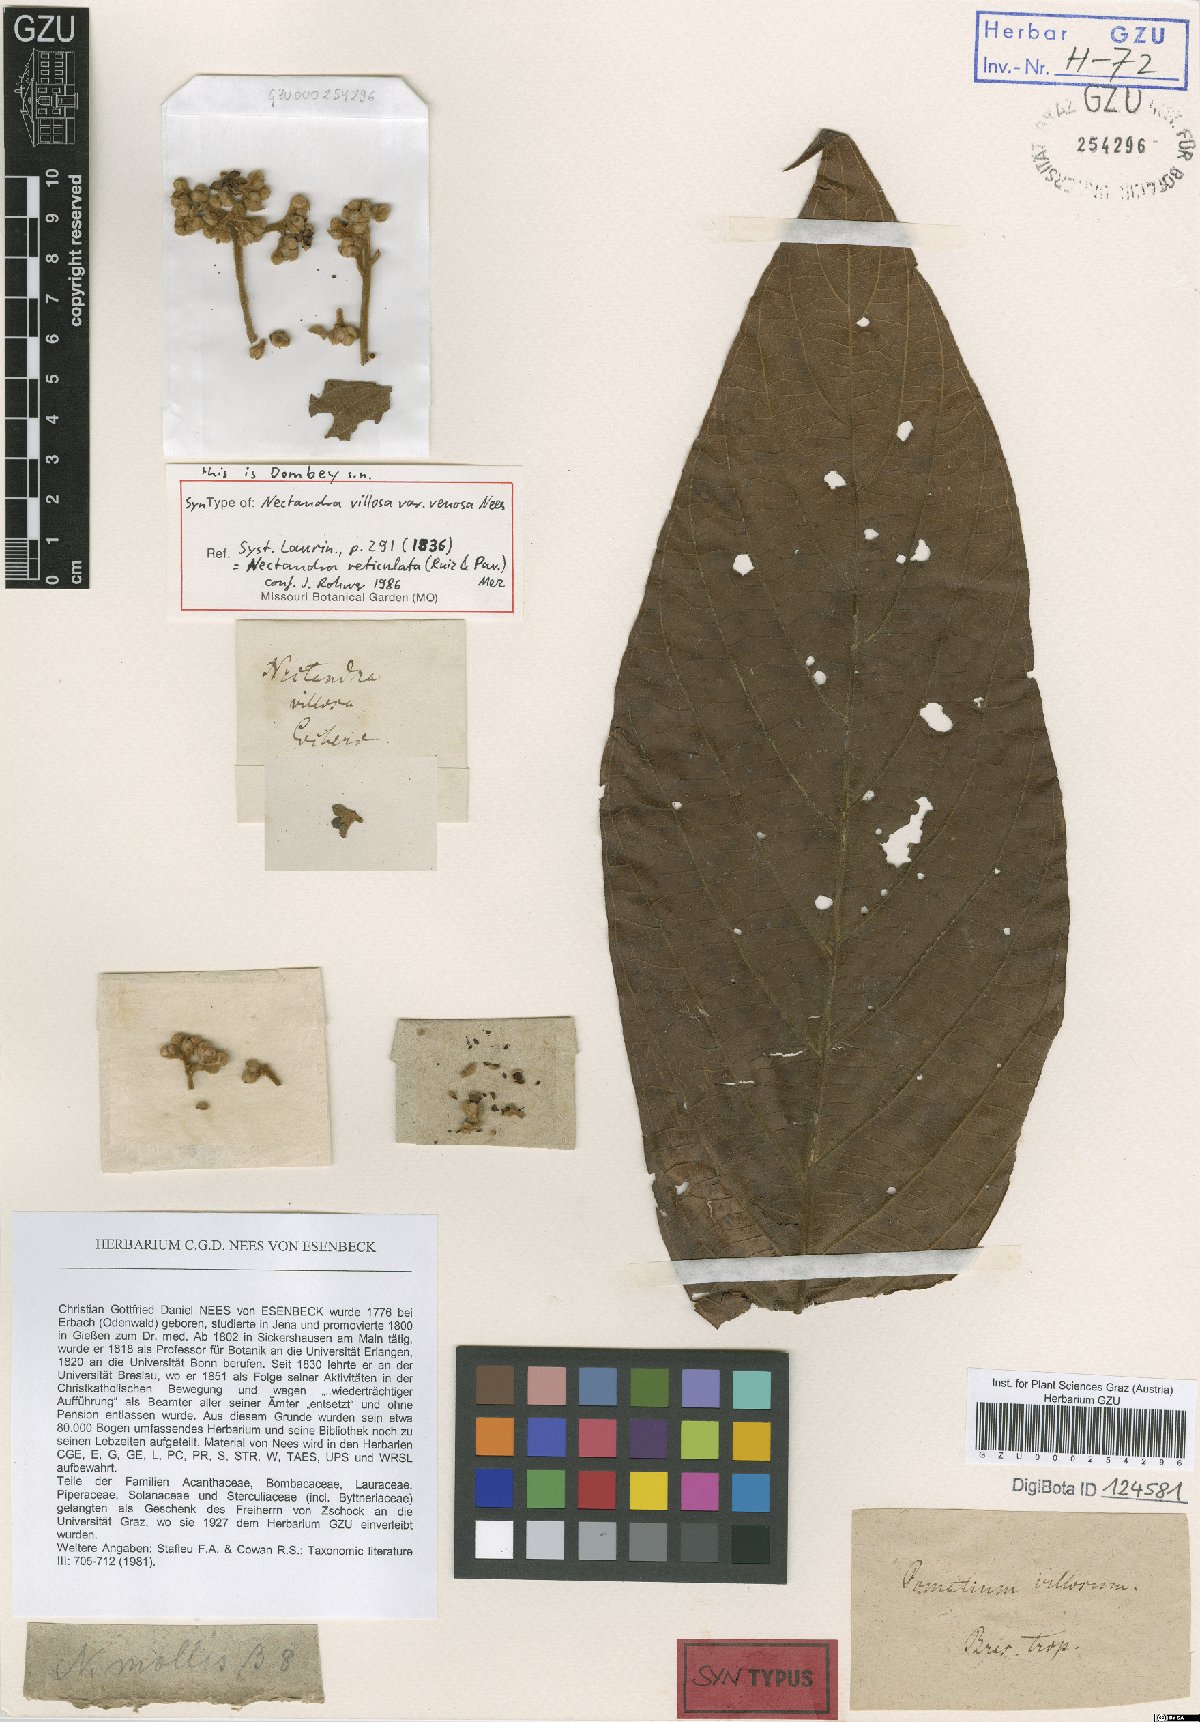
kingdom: Plantae
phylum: Tracheophyta
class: Magnoliopsida
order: Laurales
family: Lauraceae
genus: Nectandra
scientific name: Nectandra villosa
